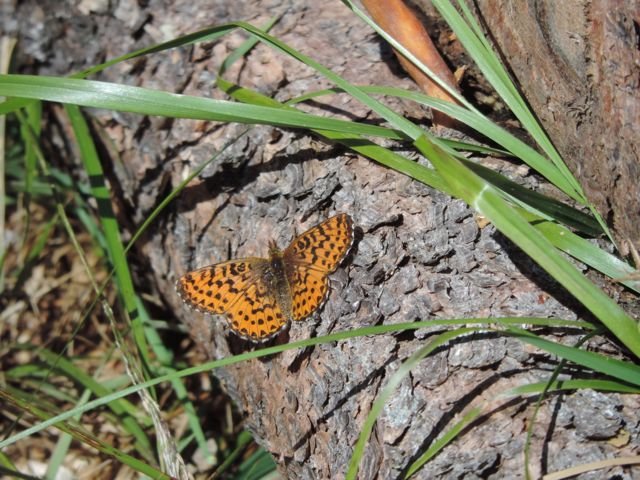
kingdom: Animalia
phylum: Arthropoda
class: Insecta
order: Lepidoptera
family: Nymphalidae
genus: Boloria
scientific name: Boloria chariclea
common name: Arctic Fritillary
